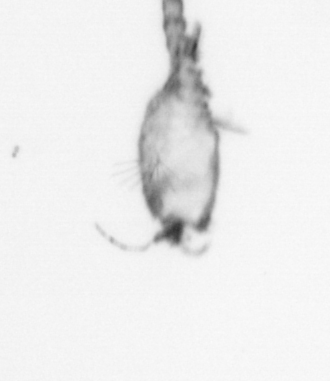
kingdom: Animalia
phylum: Arthropoda
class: Copepoda
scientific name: Copepoda
